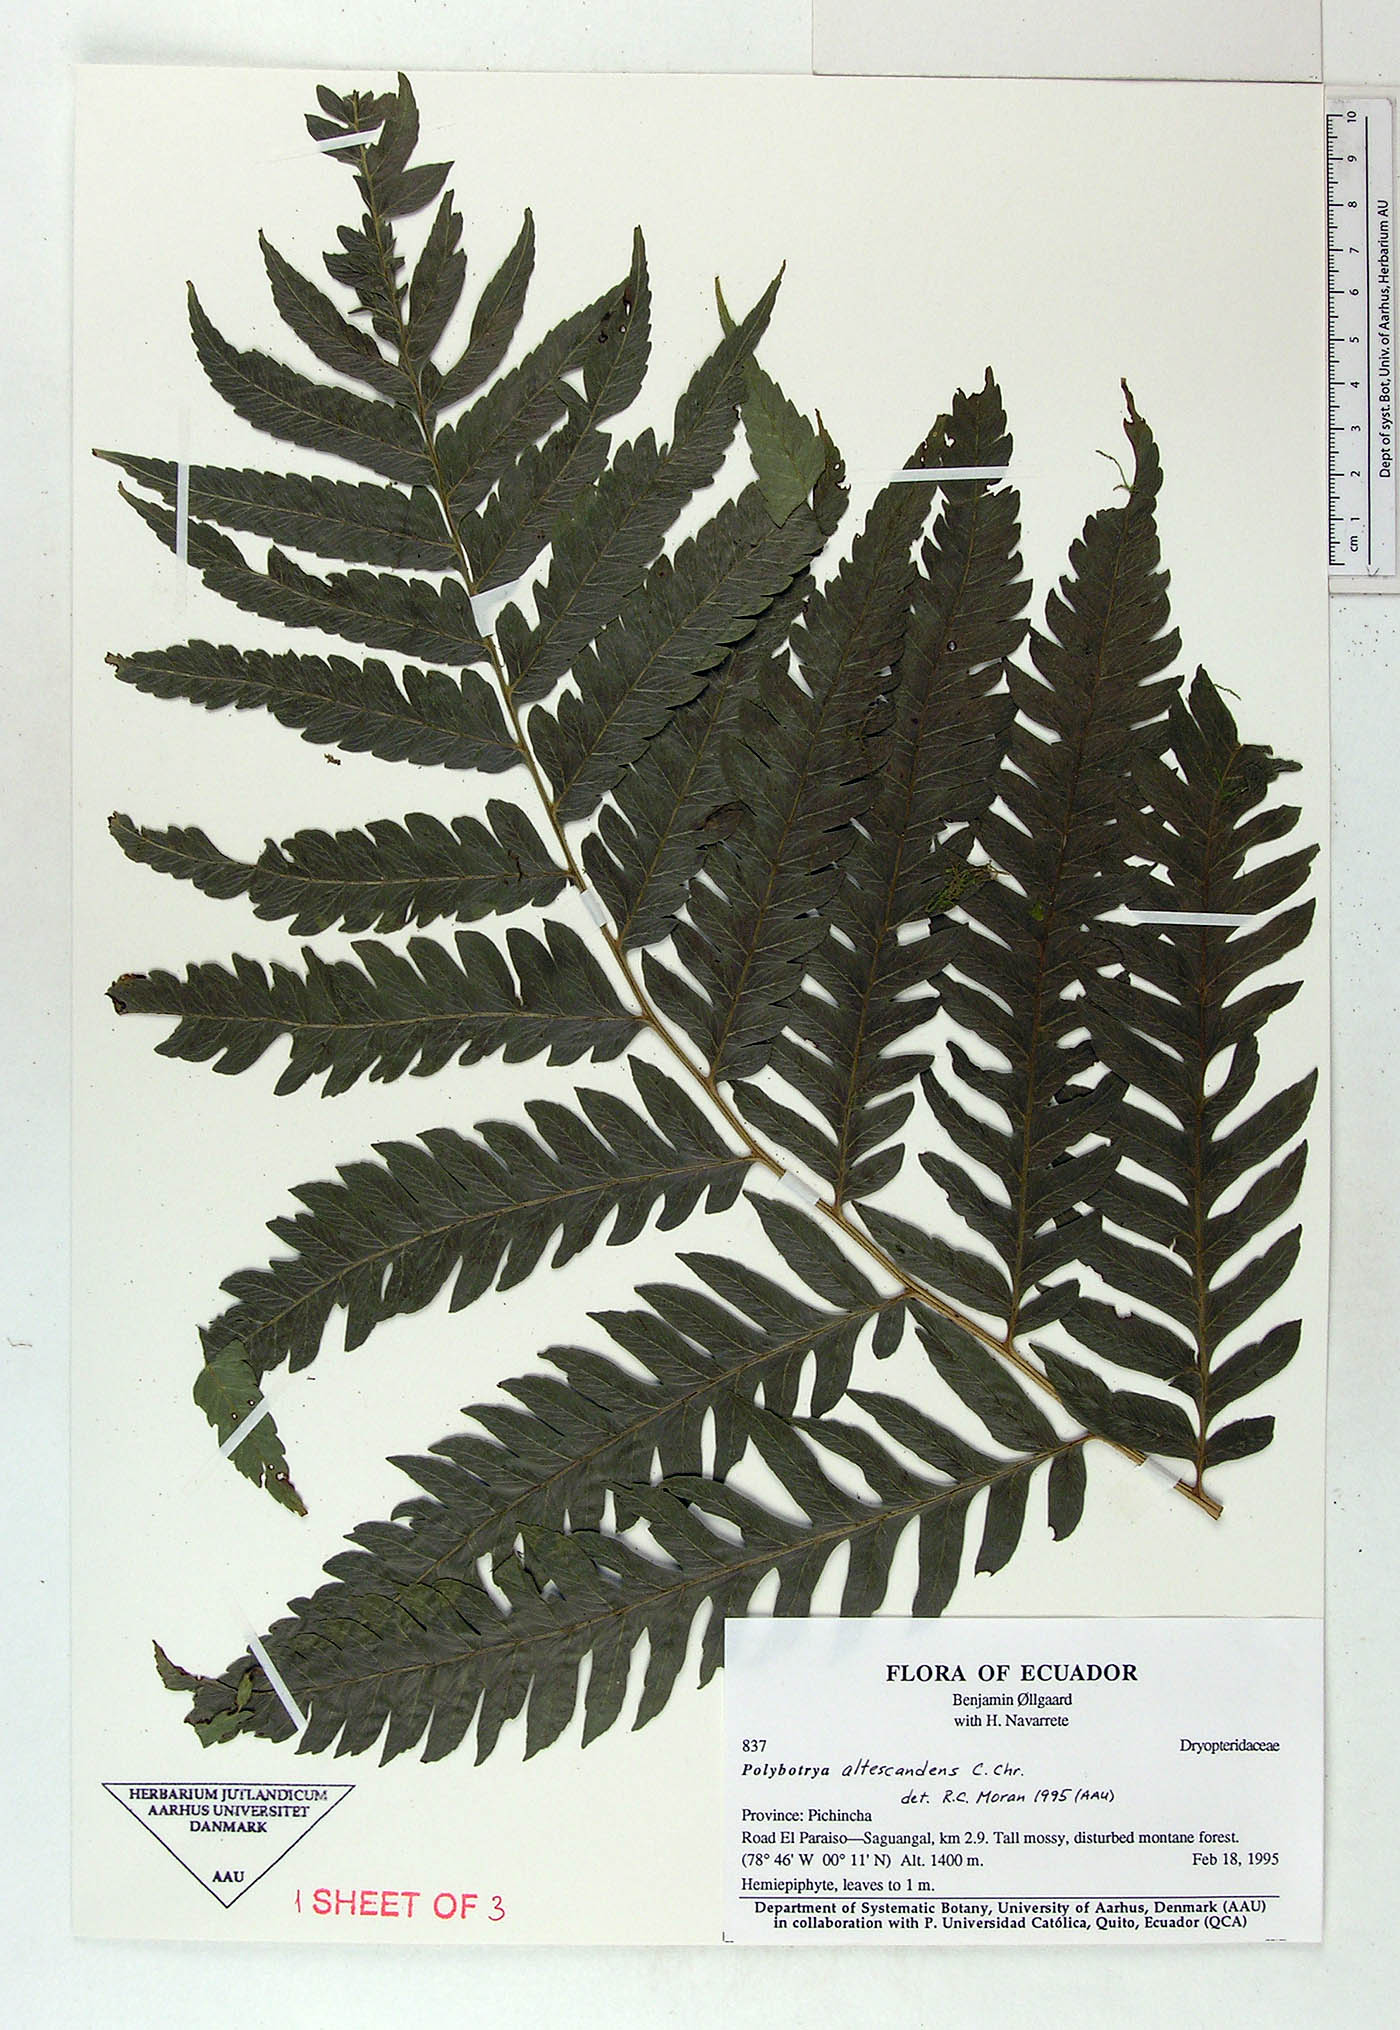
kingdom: Plantae
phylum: Tracheophyta
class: Polypodiopsida
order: Polypodiales
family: Dryopteridaceae
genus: Polybotrya
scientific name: Polybotrya altescandens
